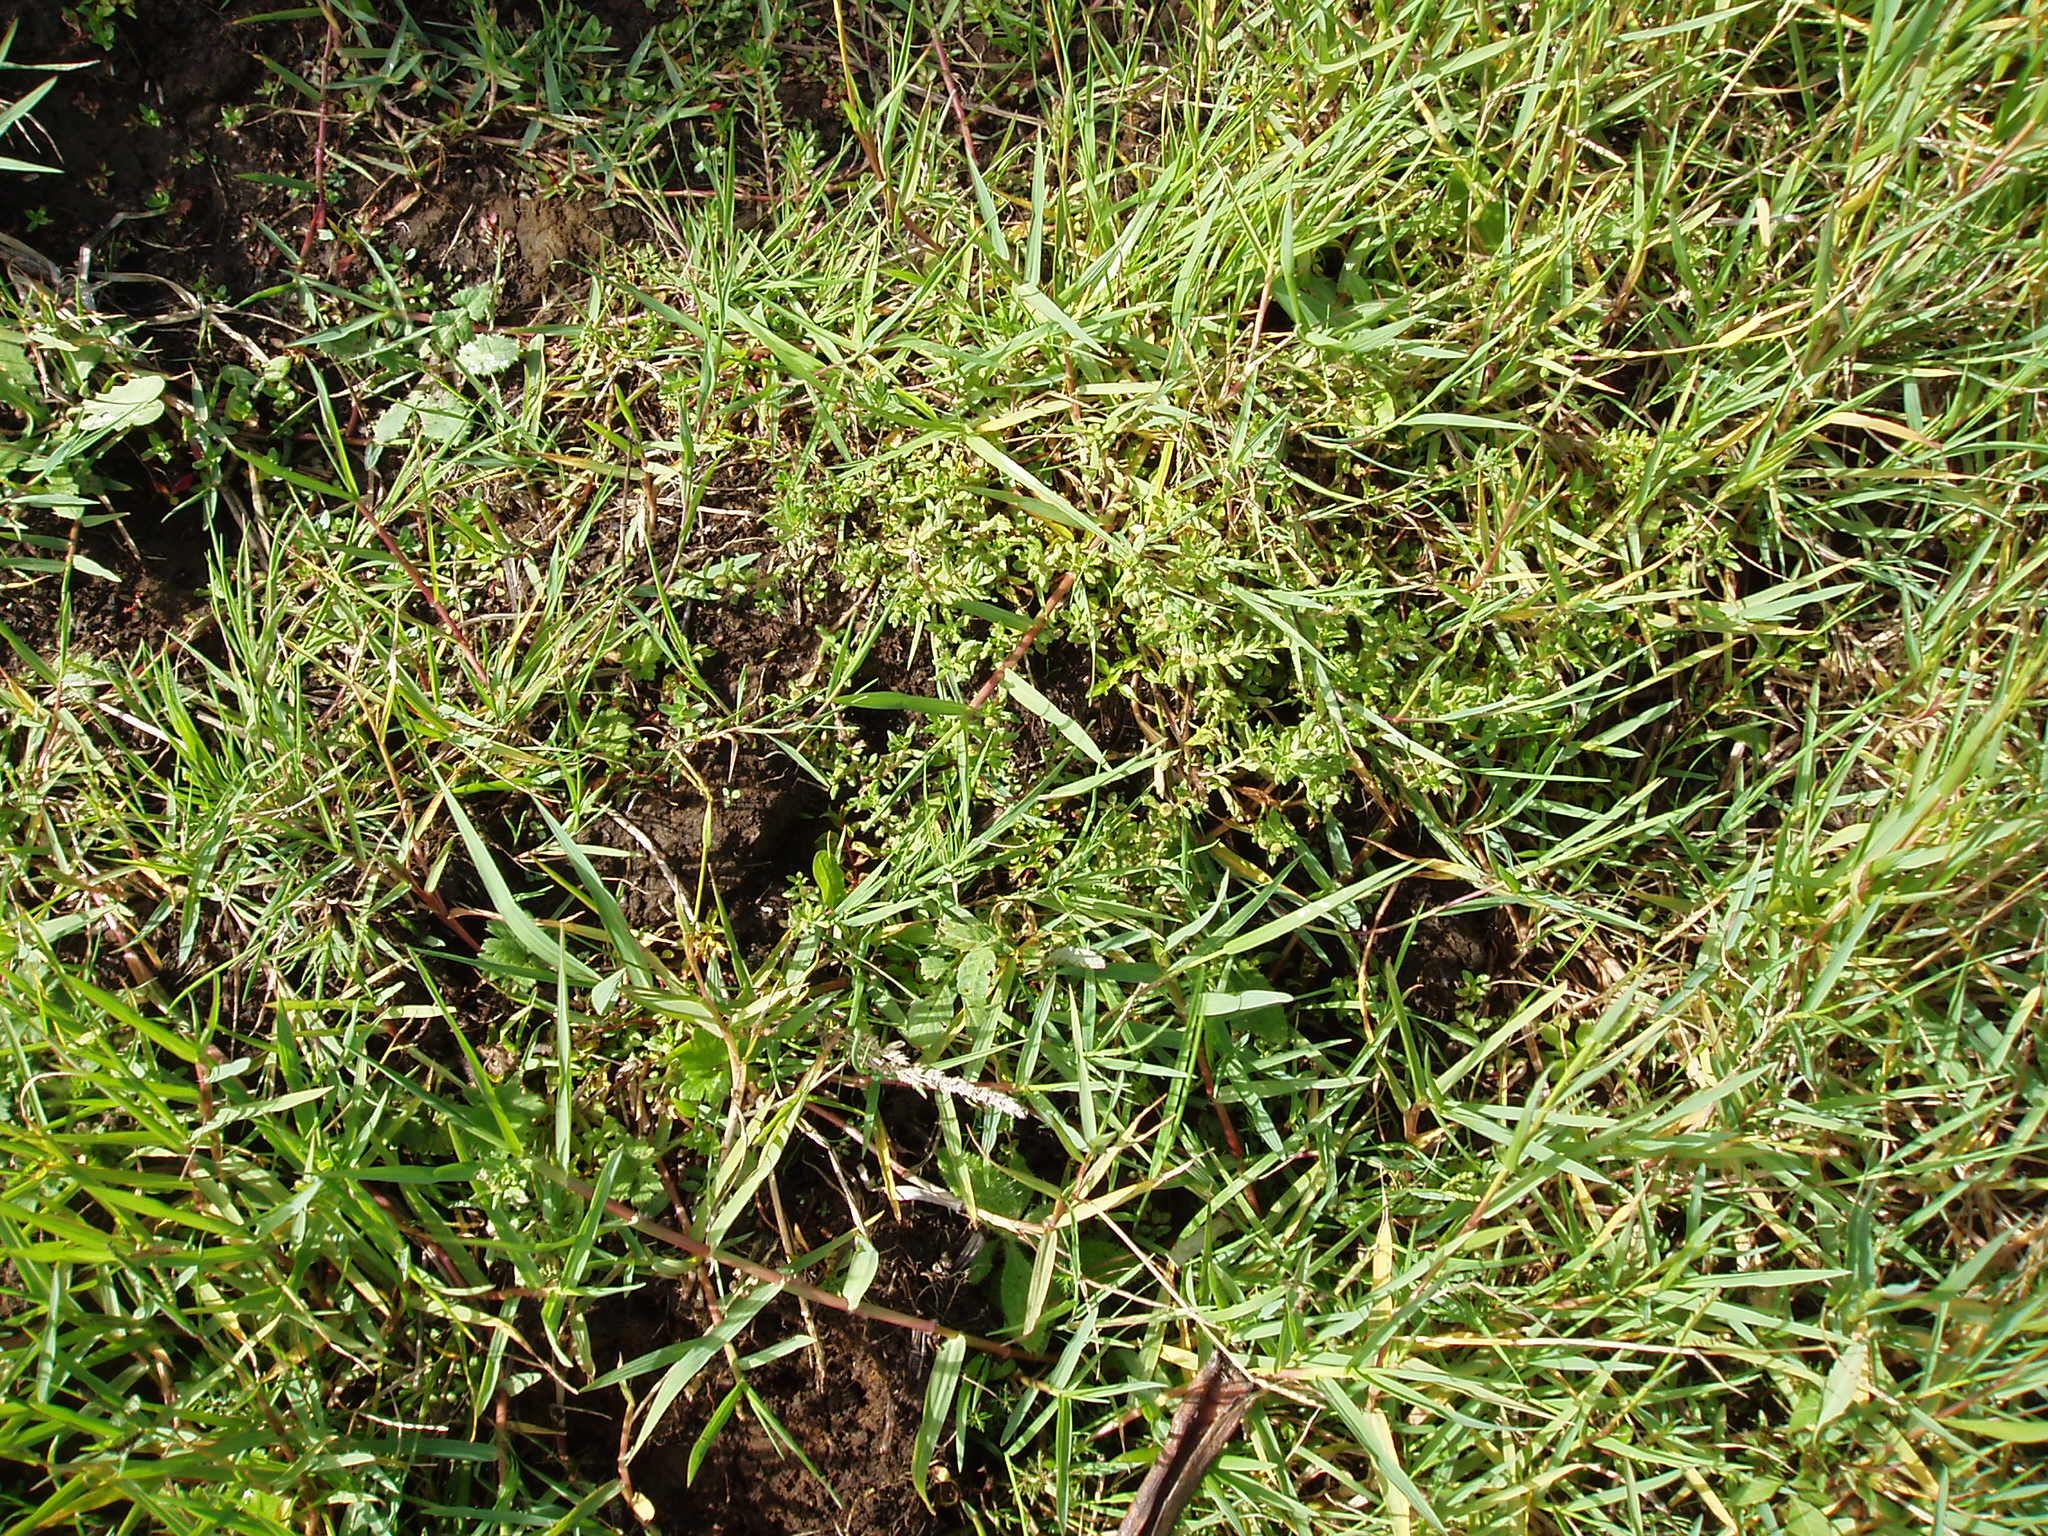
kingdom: Plantae
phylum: Tracheophyta
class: Magnoliopsida
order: Asterales
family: Asteraceae
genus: Centipeda
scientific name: Centipeda cunninghamii
